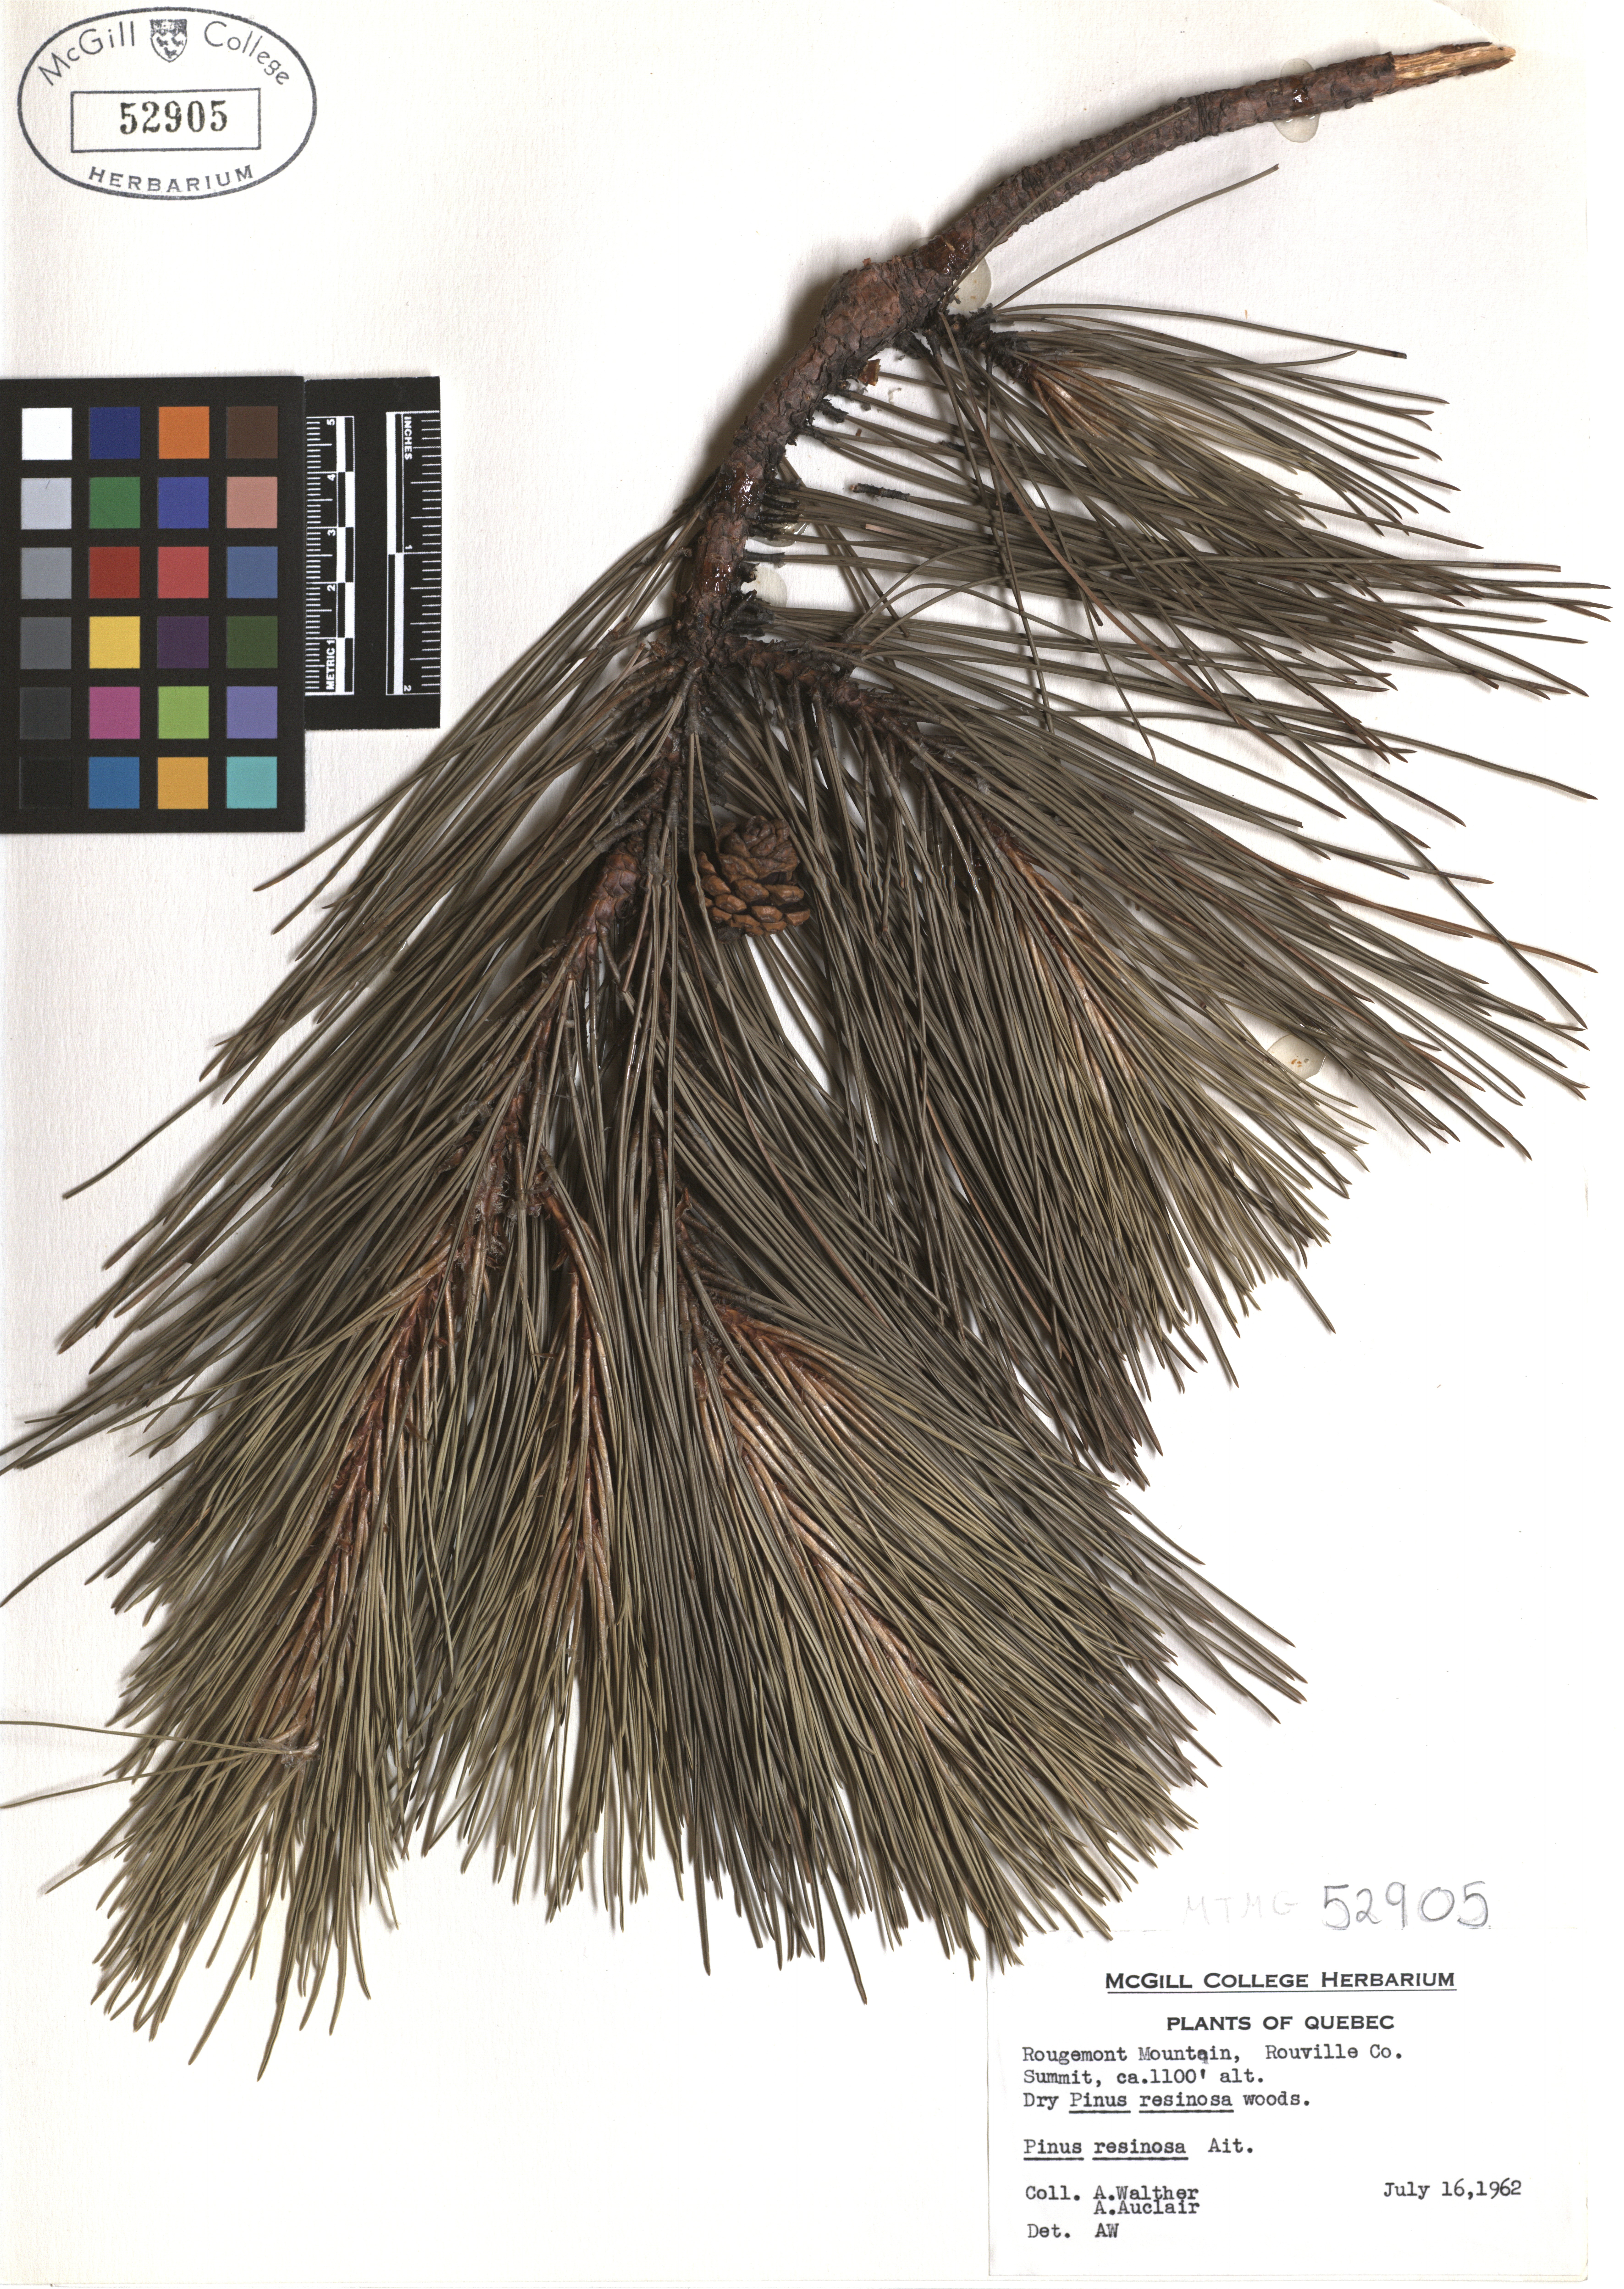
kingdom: Plantae
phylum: Tracheophyta
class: Pinopsida
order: Pinales
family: Pinaceae
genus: Pinus
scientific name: Pinus hartwegii
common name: Hartweg's pine
